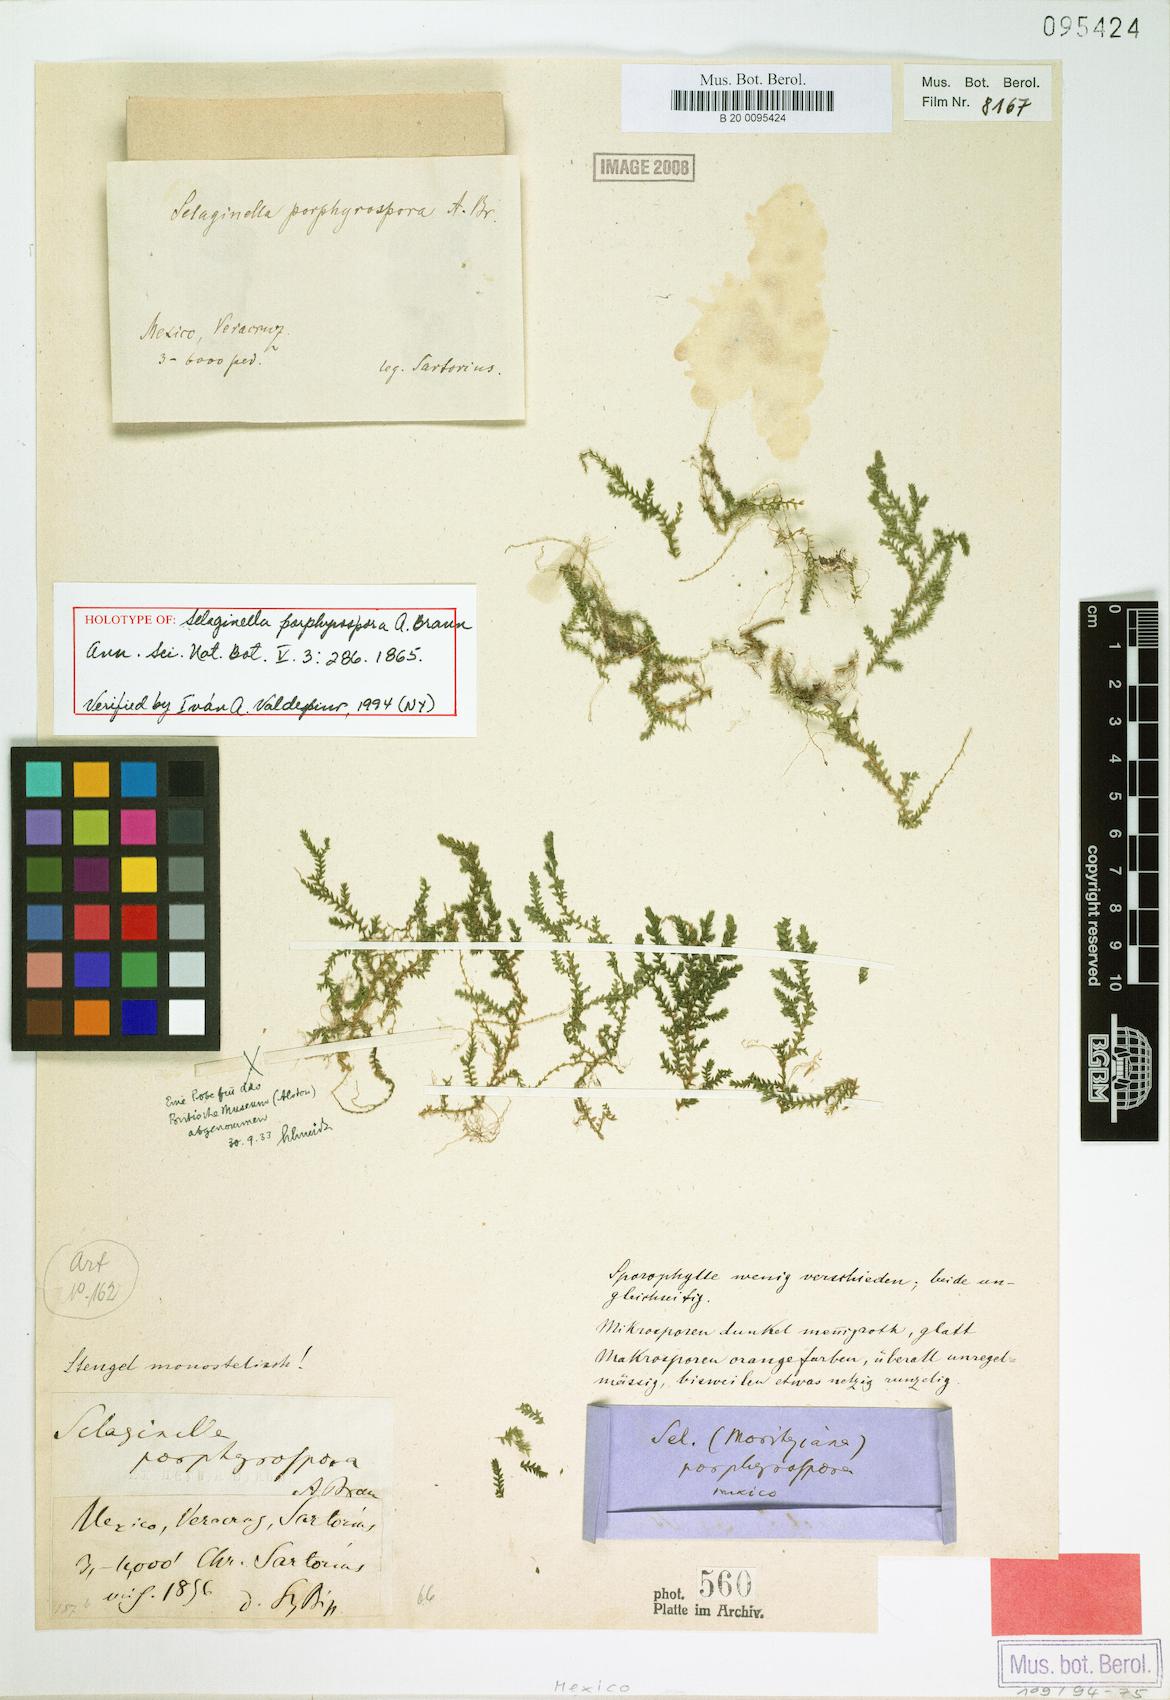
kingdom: Plantae
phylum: Tracheophyta
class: Lycopodiopsida
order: Selaginellales
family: Selaginellaceae
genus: Selaginella
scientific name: Selaginella porphyrospora
